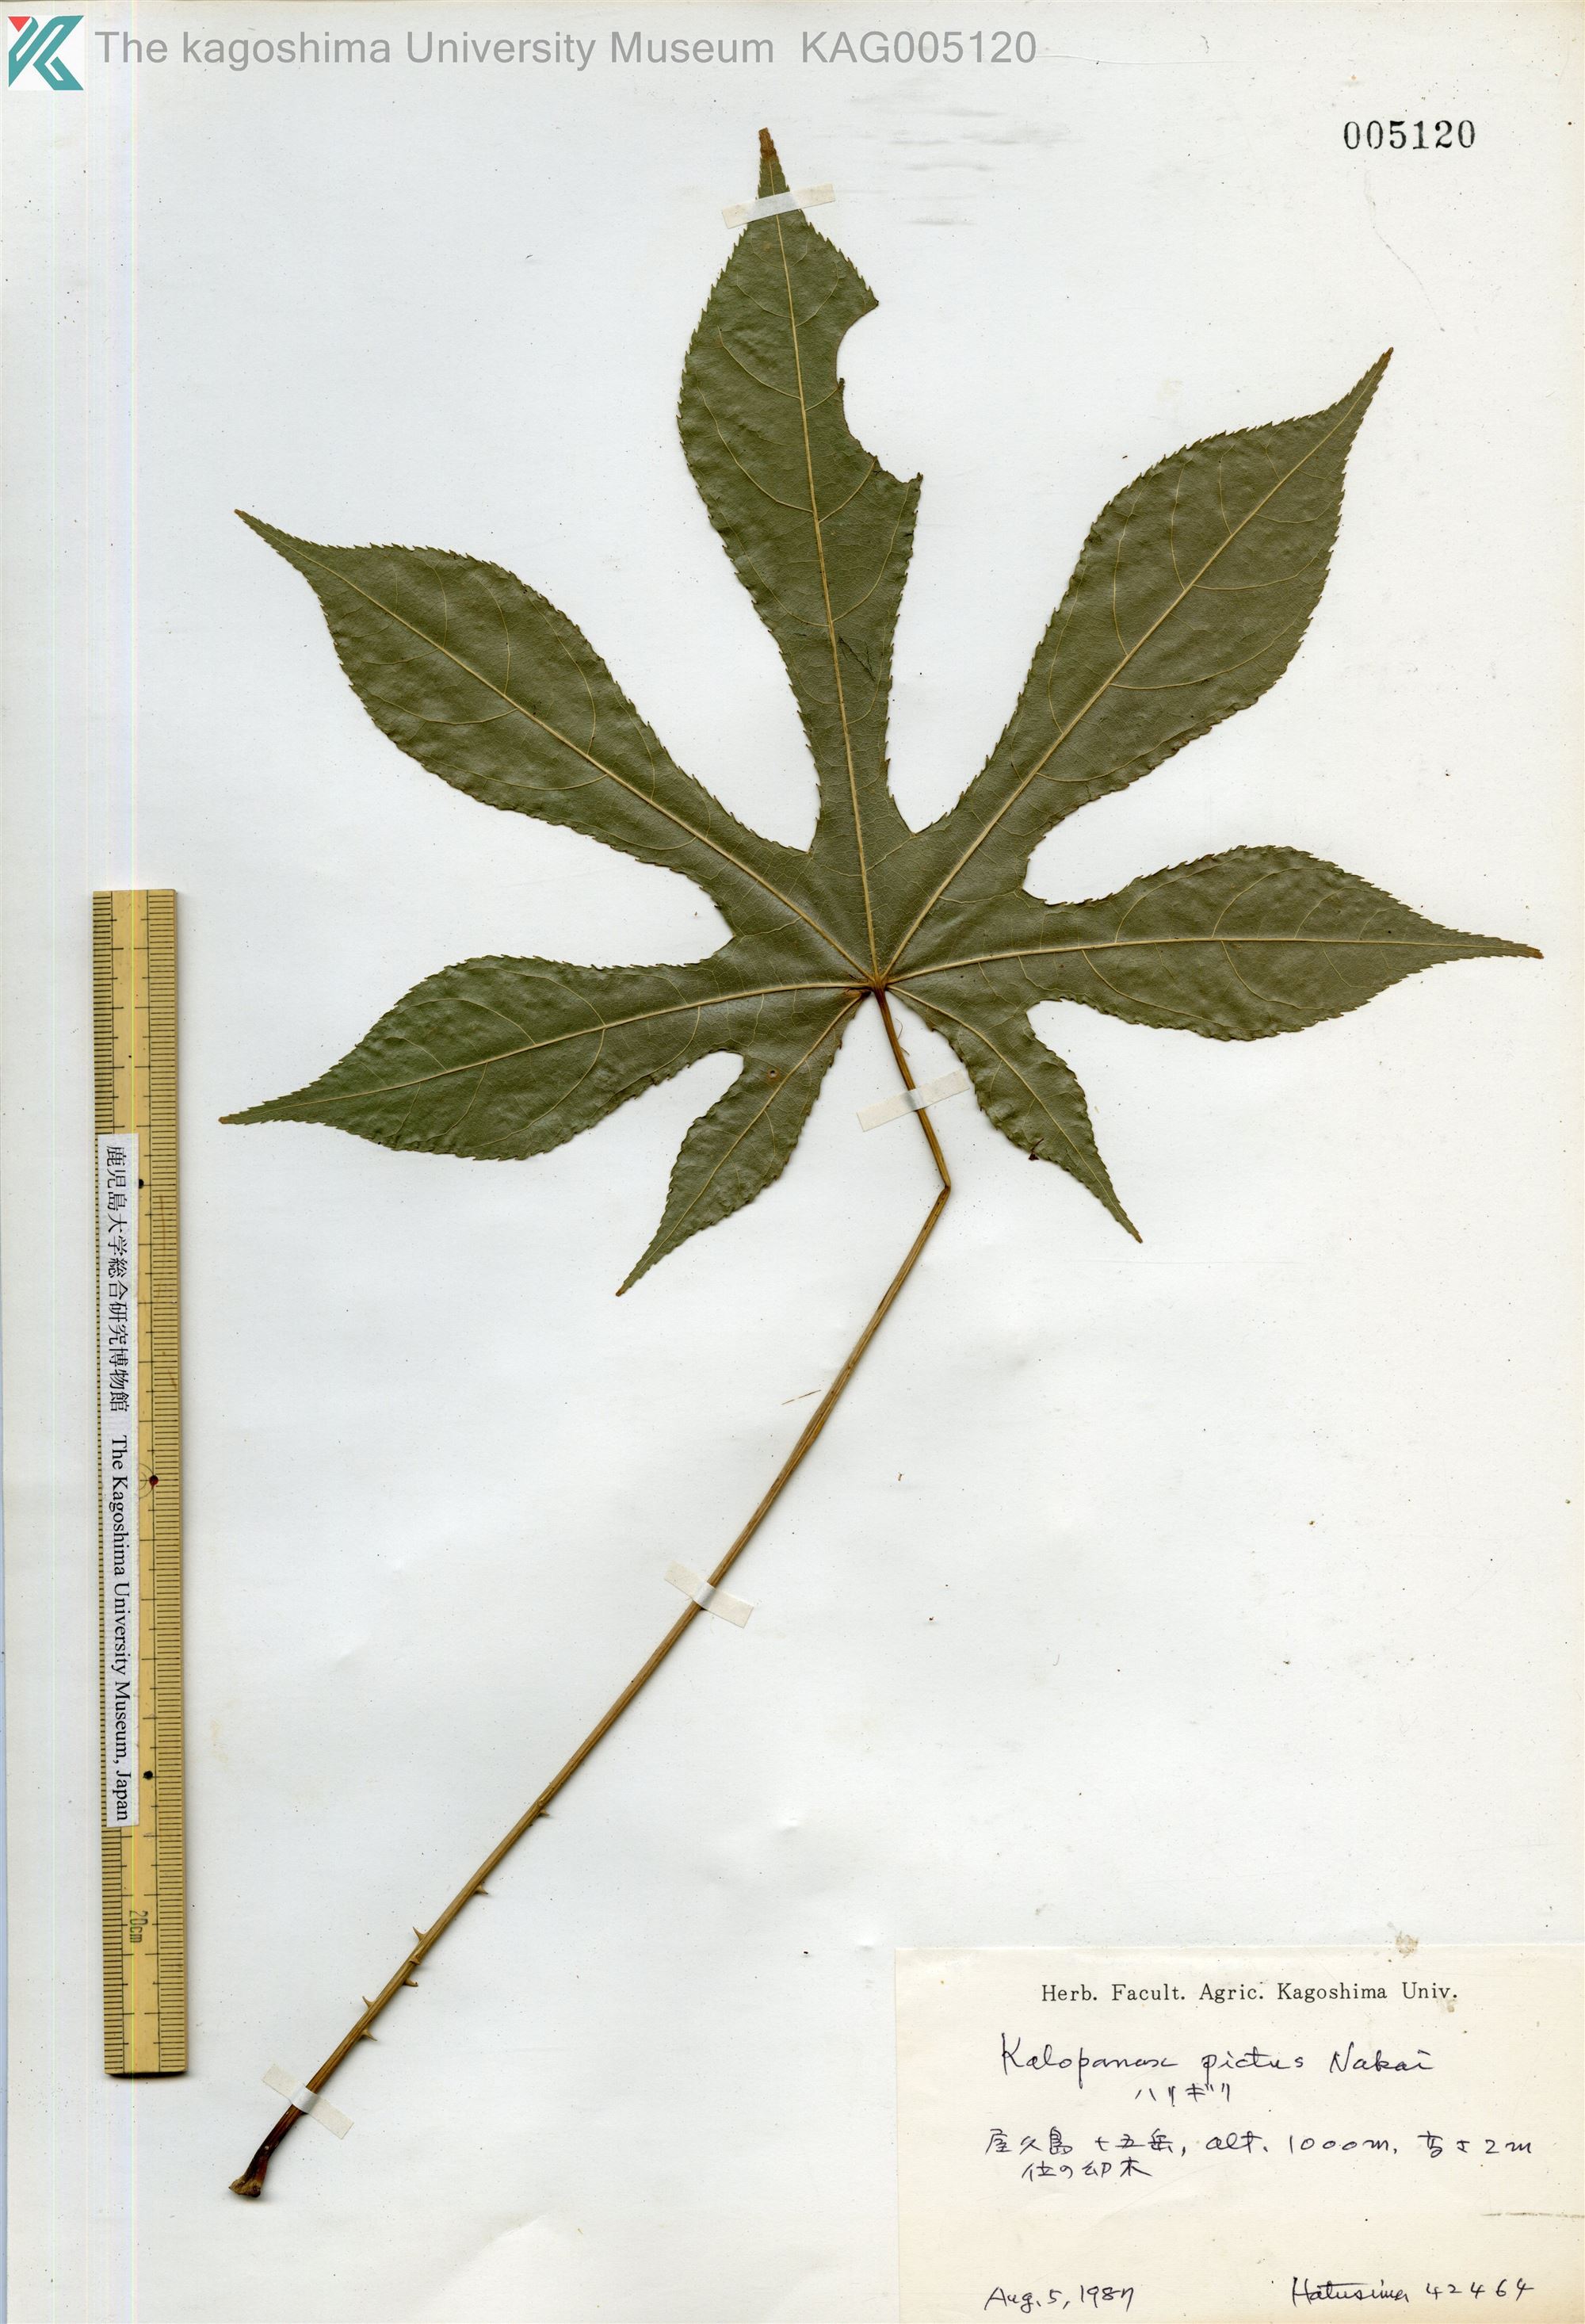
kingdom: Plantae
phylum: Tracheophyta
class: Magnoliopsida
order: Apiales
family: Araliaceae
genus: Kalopanax
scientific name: Kalopanax septemlobus
